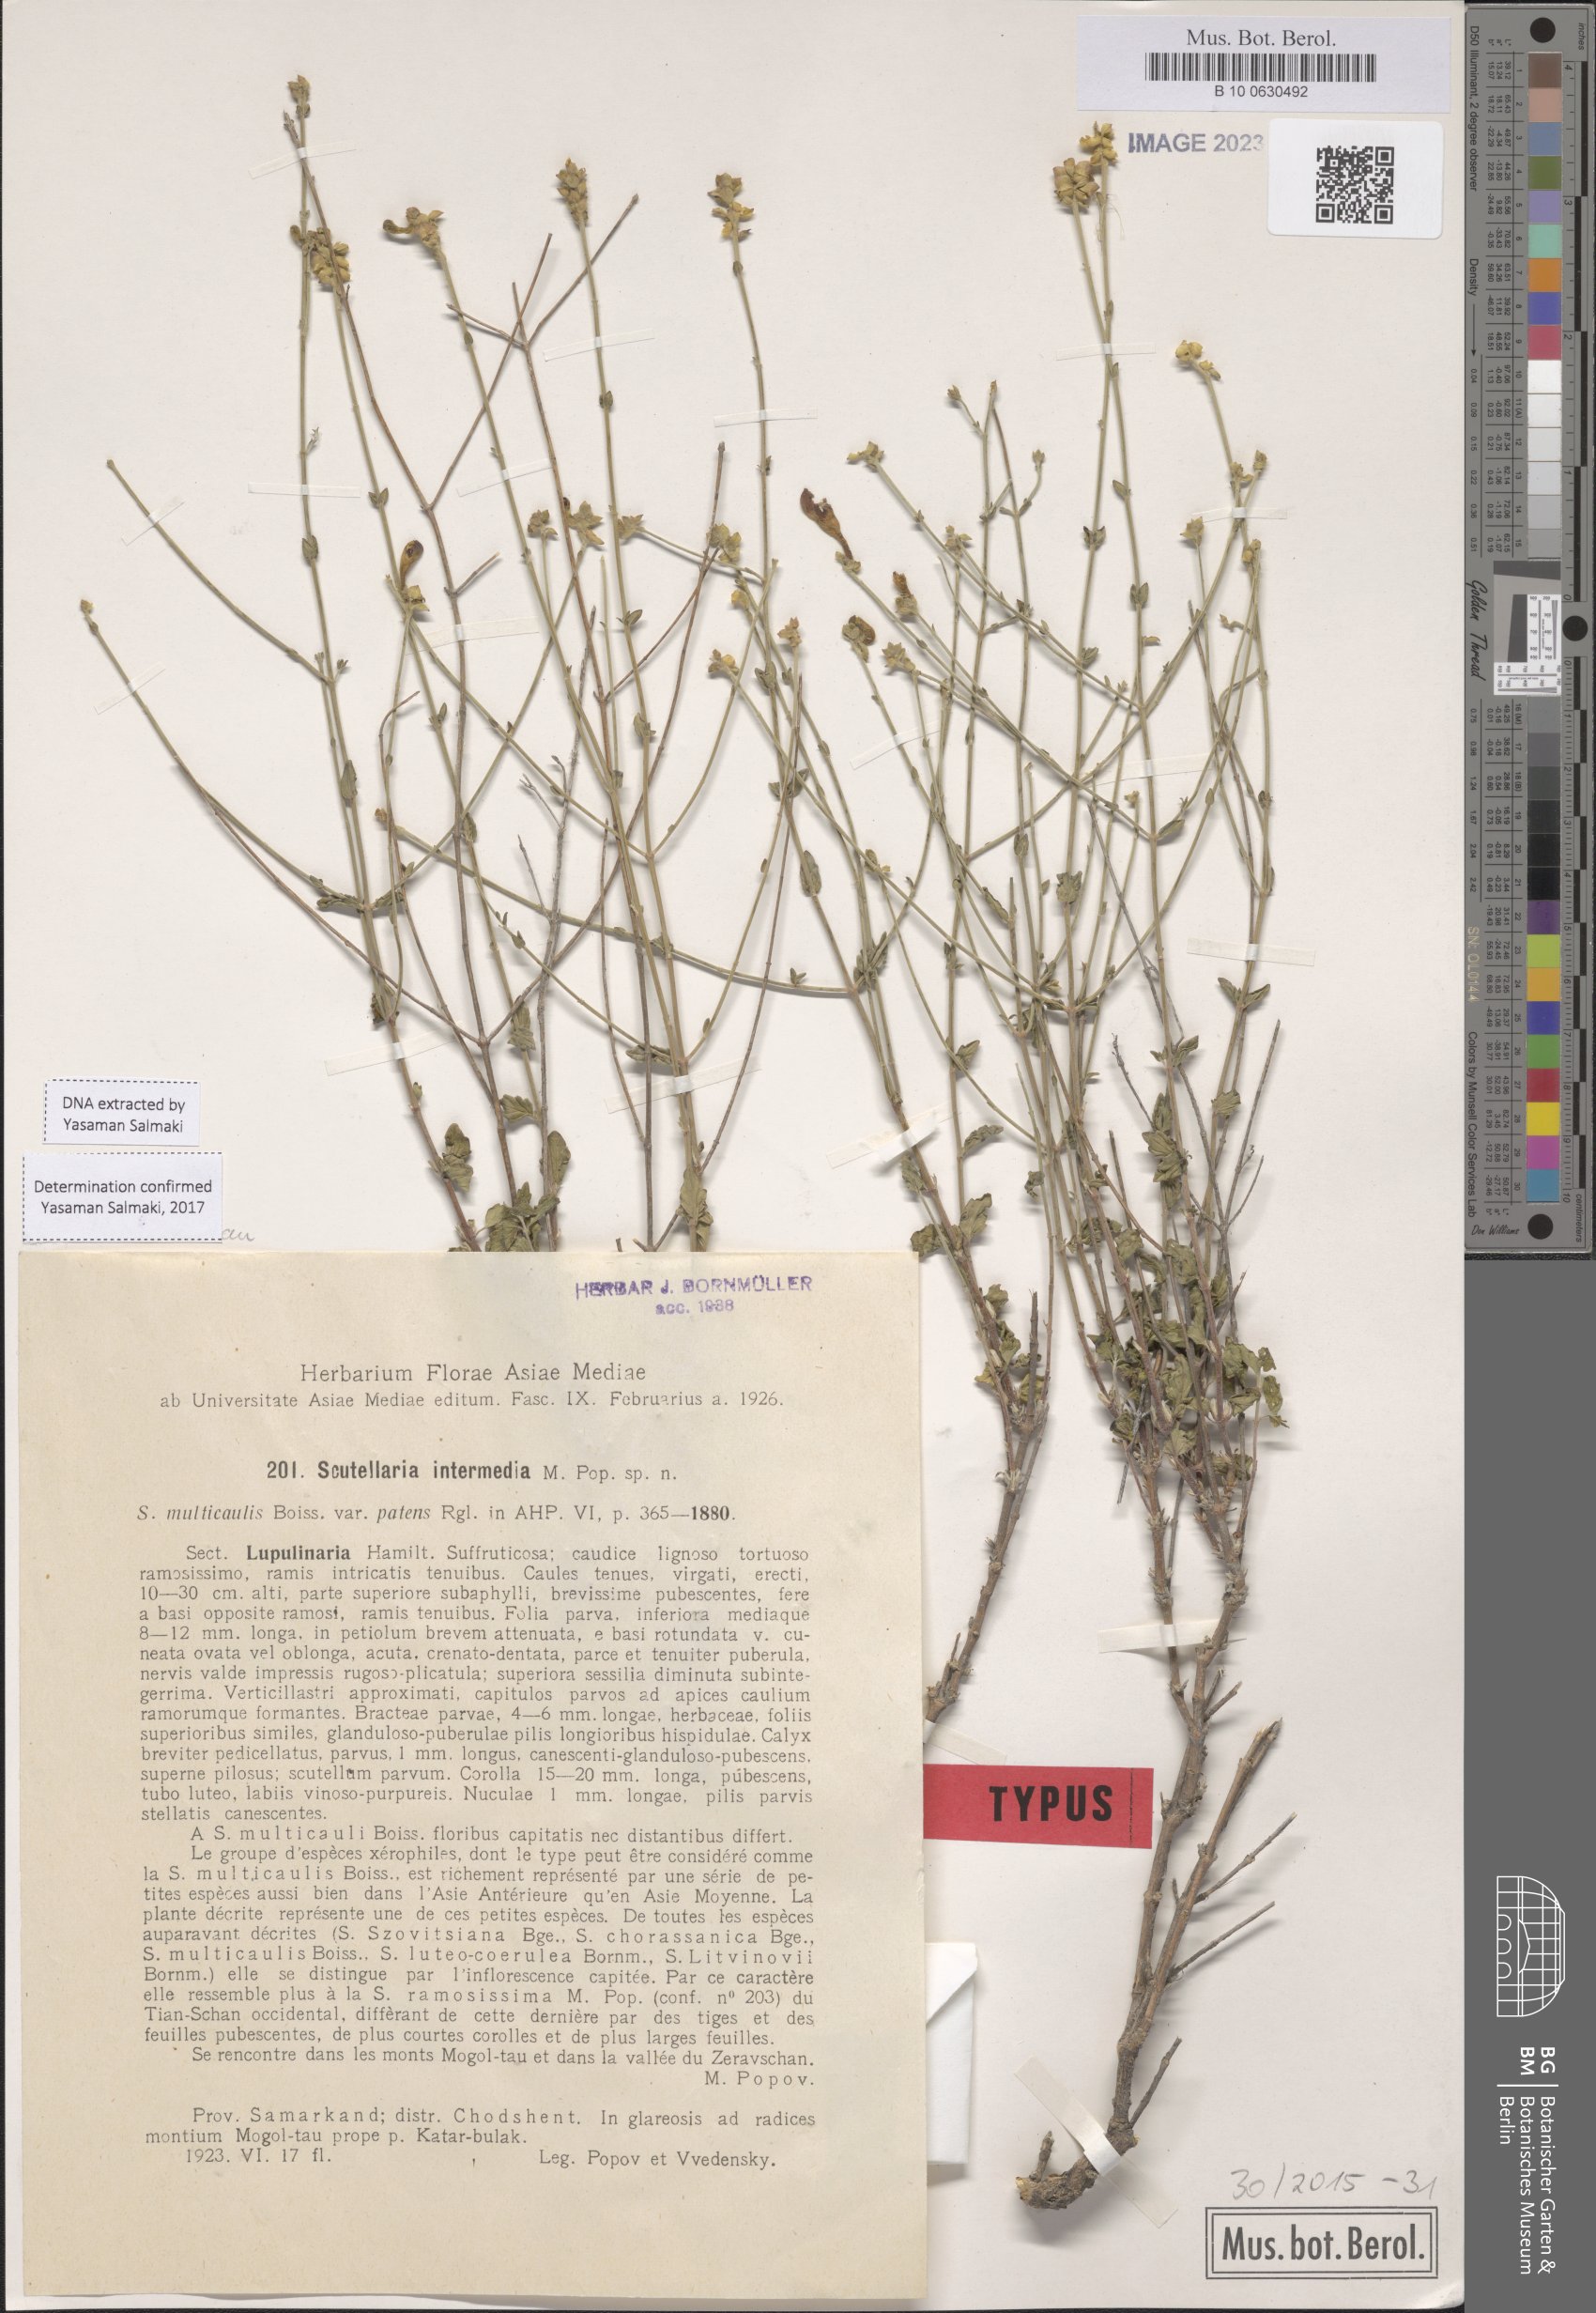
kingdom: Plantae
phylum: Tracheophyta
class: Magnoliopsida
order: Lamiales
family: Lamiaceae
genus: Scutellaria
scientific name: Scutellaria intermedia
